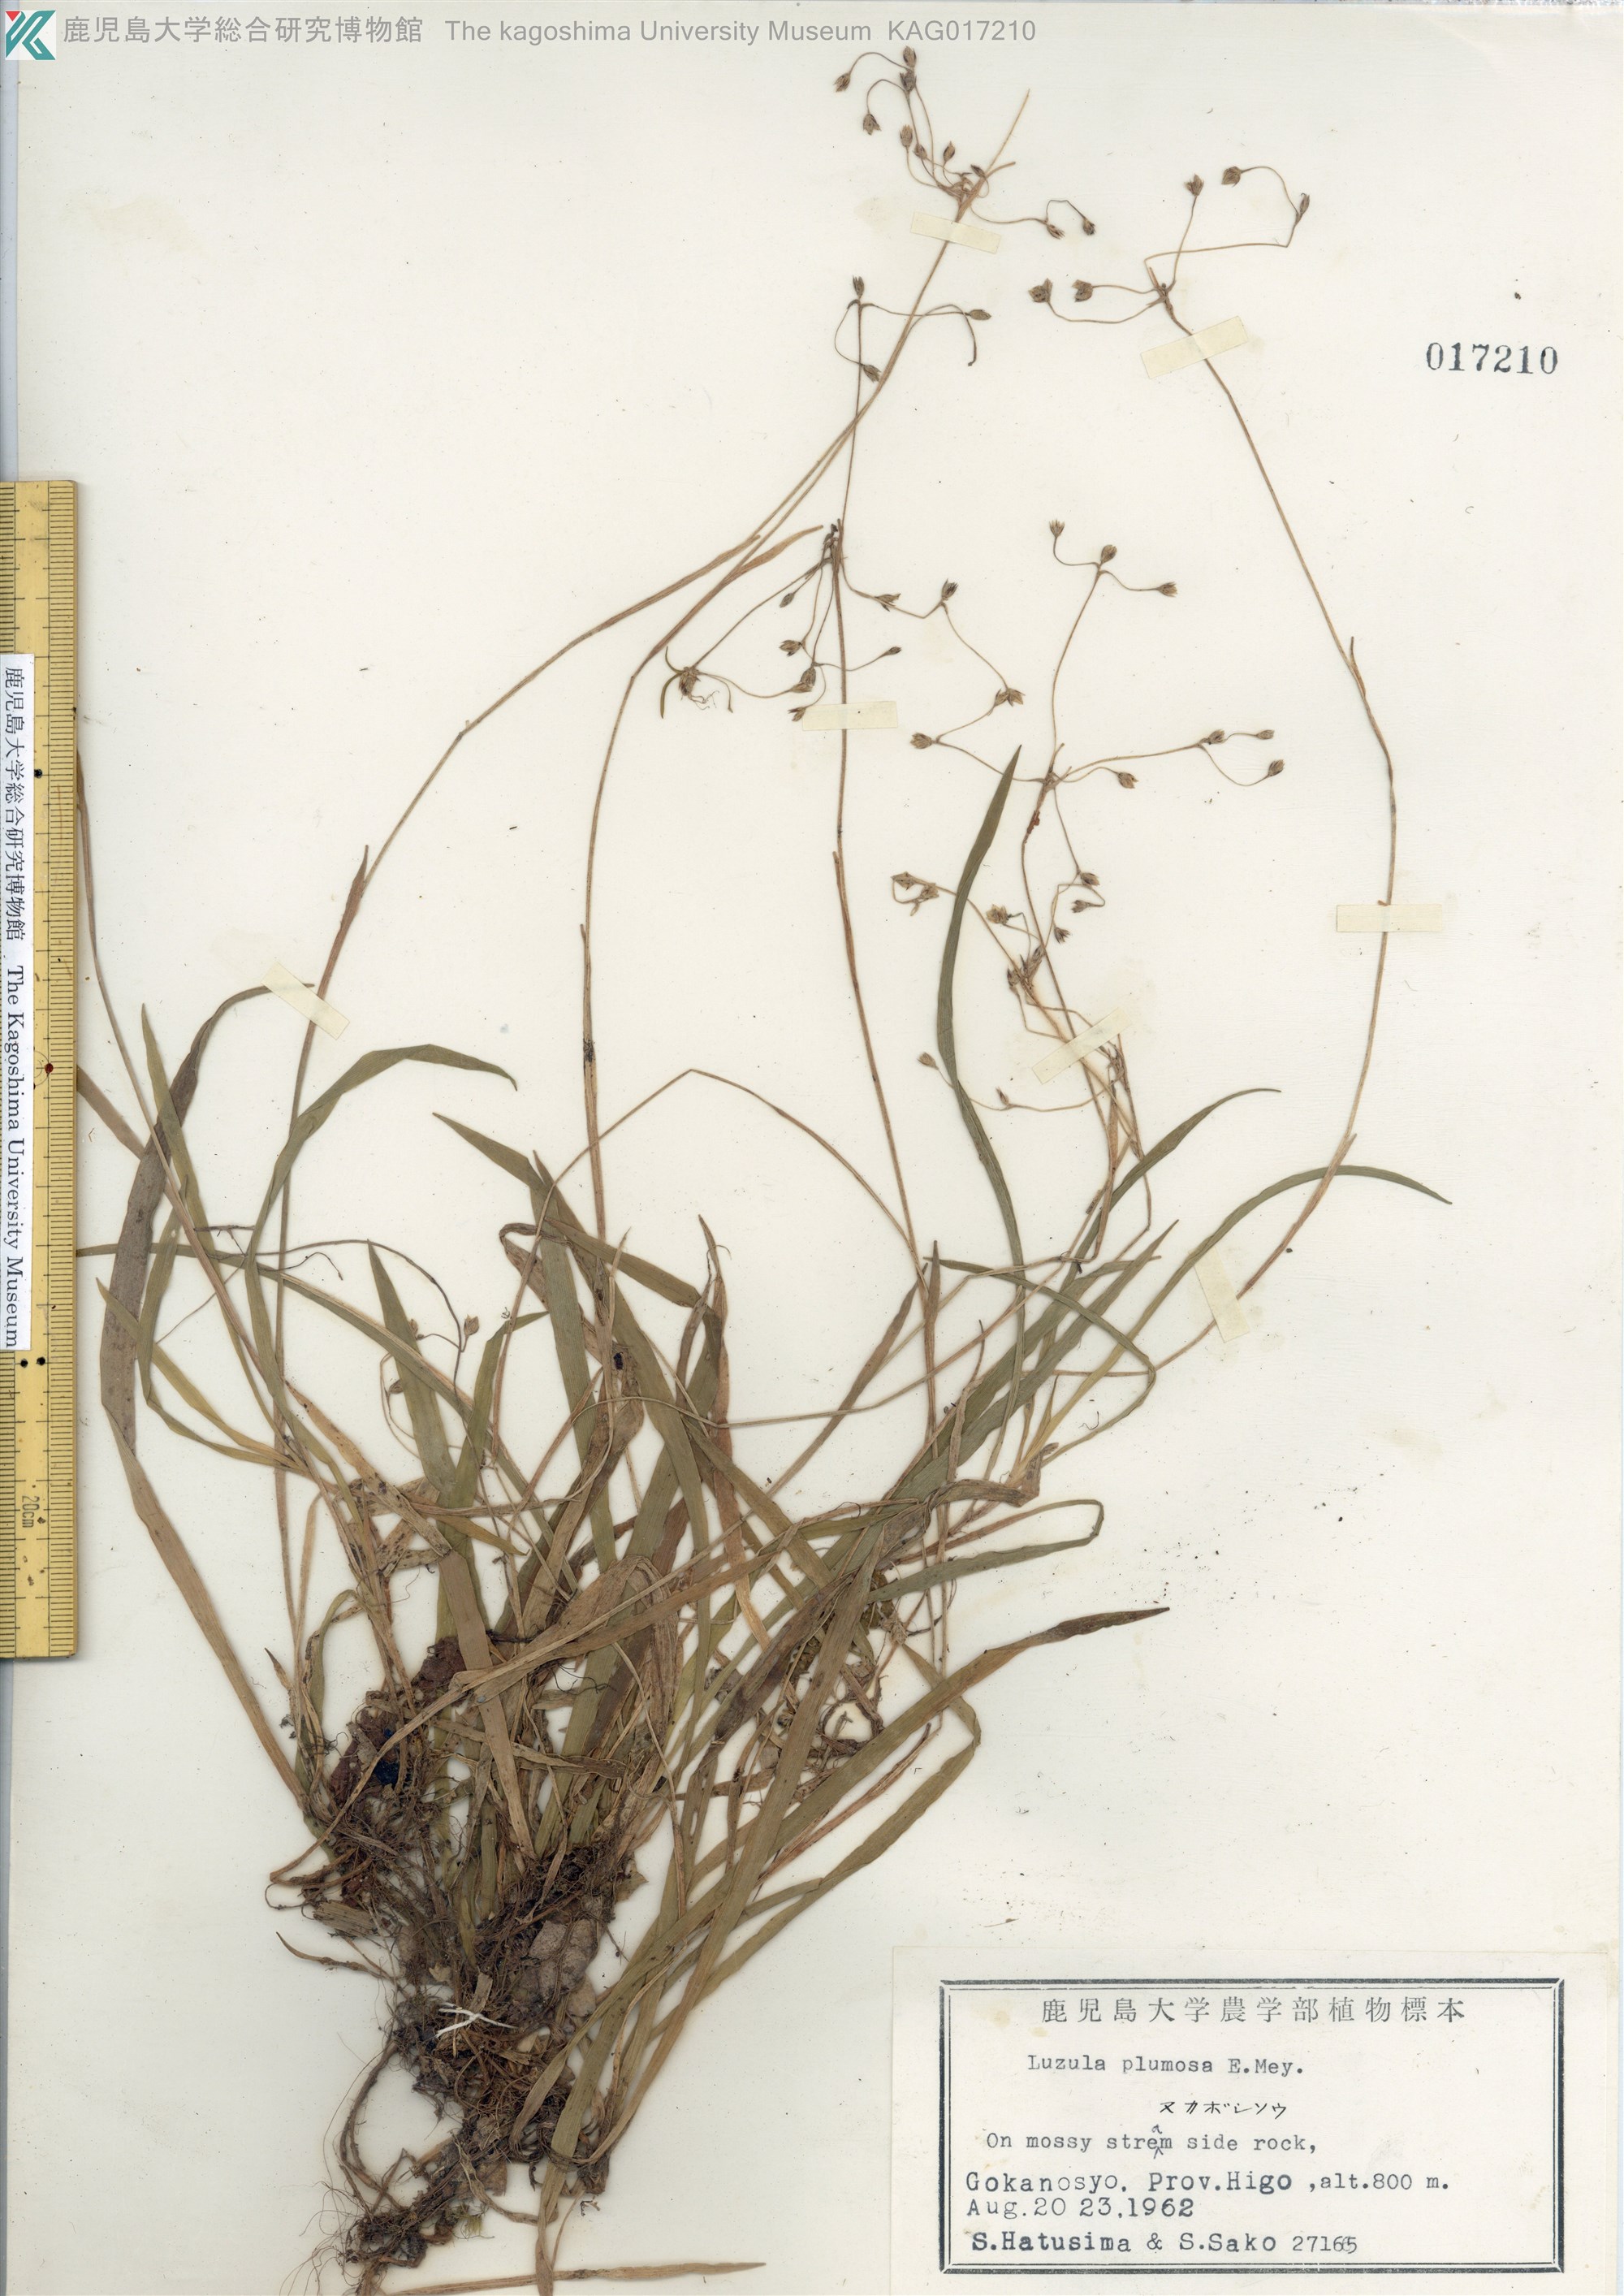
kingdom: Plantae
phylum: Tracheophyta
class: Liliopsida
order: Poales
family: Juncaceae
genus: Luzula
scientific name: Luzula plumosa
